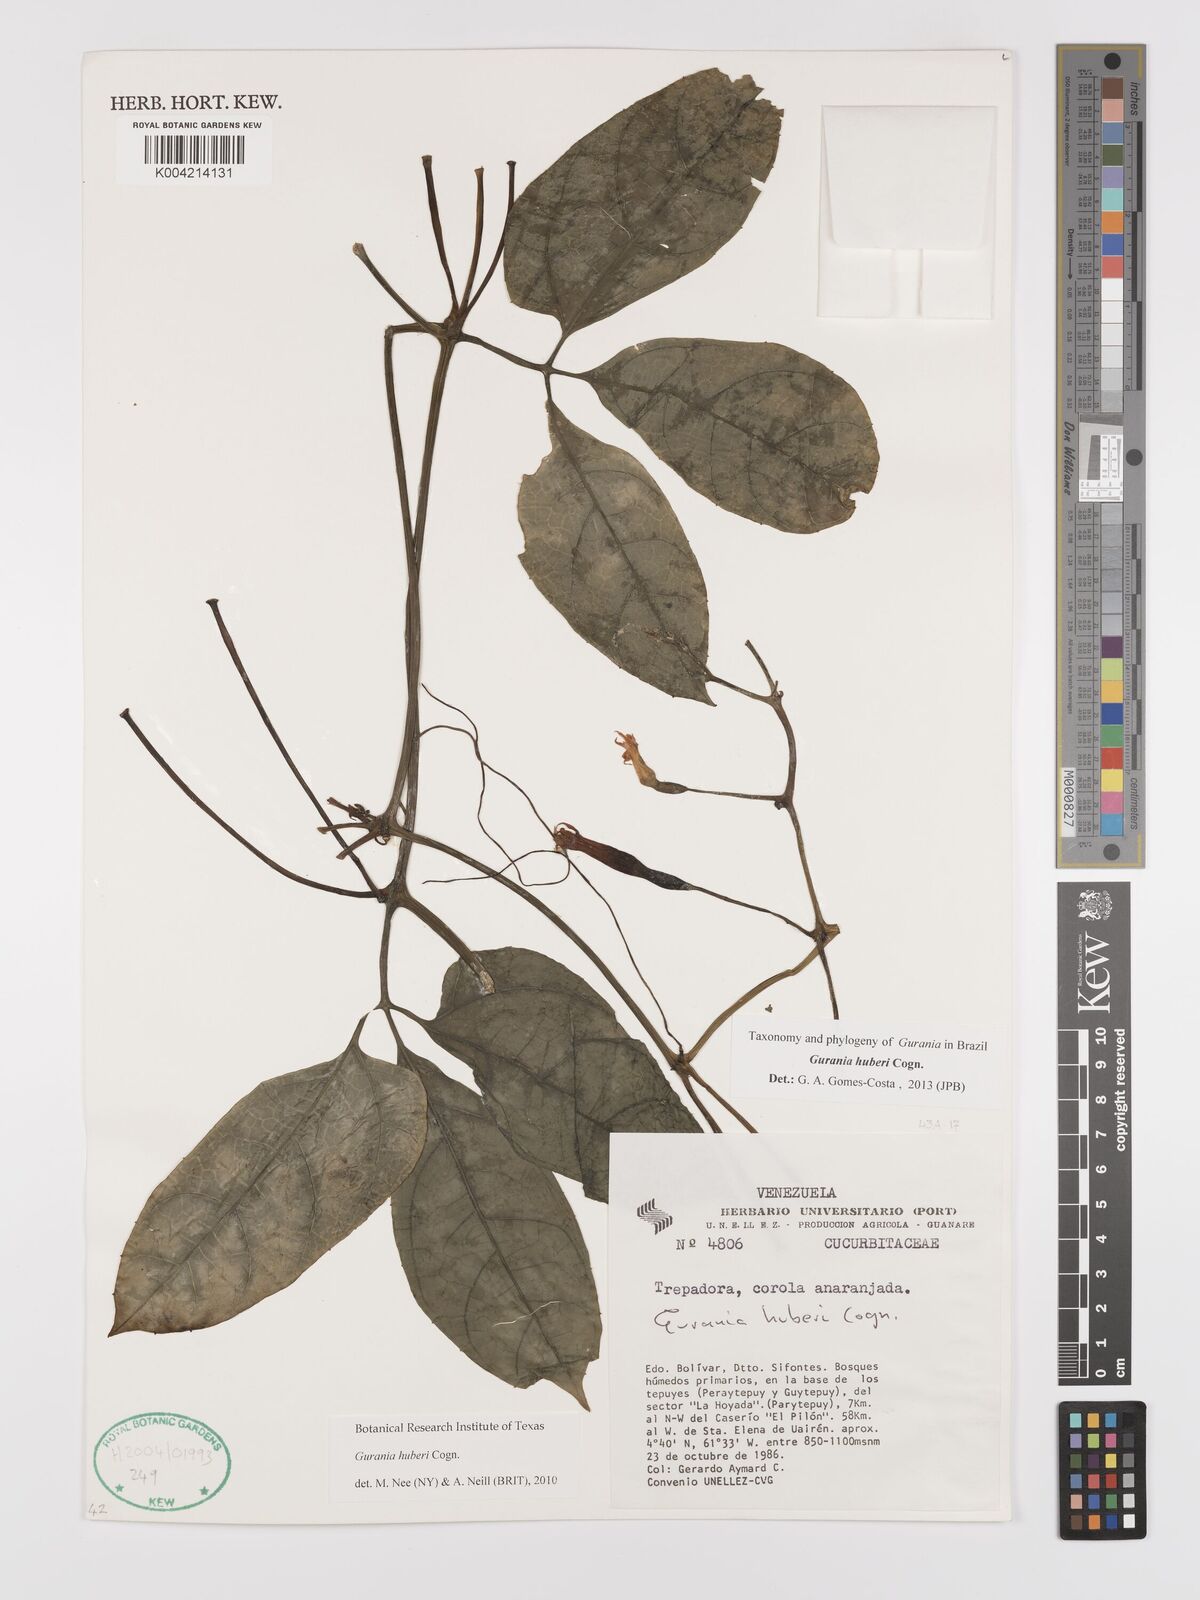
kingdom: Plantae
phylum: Tracheophyta
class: Magnoliopsida
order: Cucurbitales
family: Cucurbitaceae
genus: Gurania
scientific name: Gurania huberi
